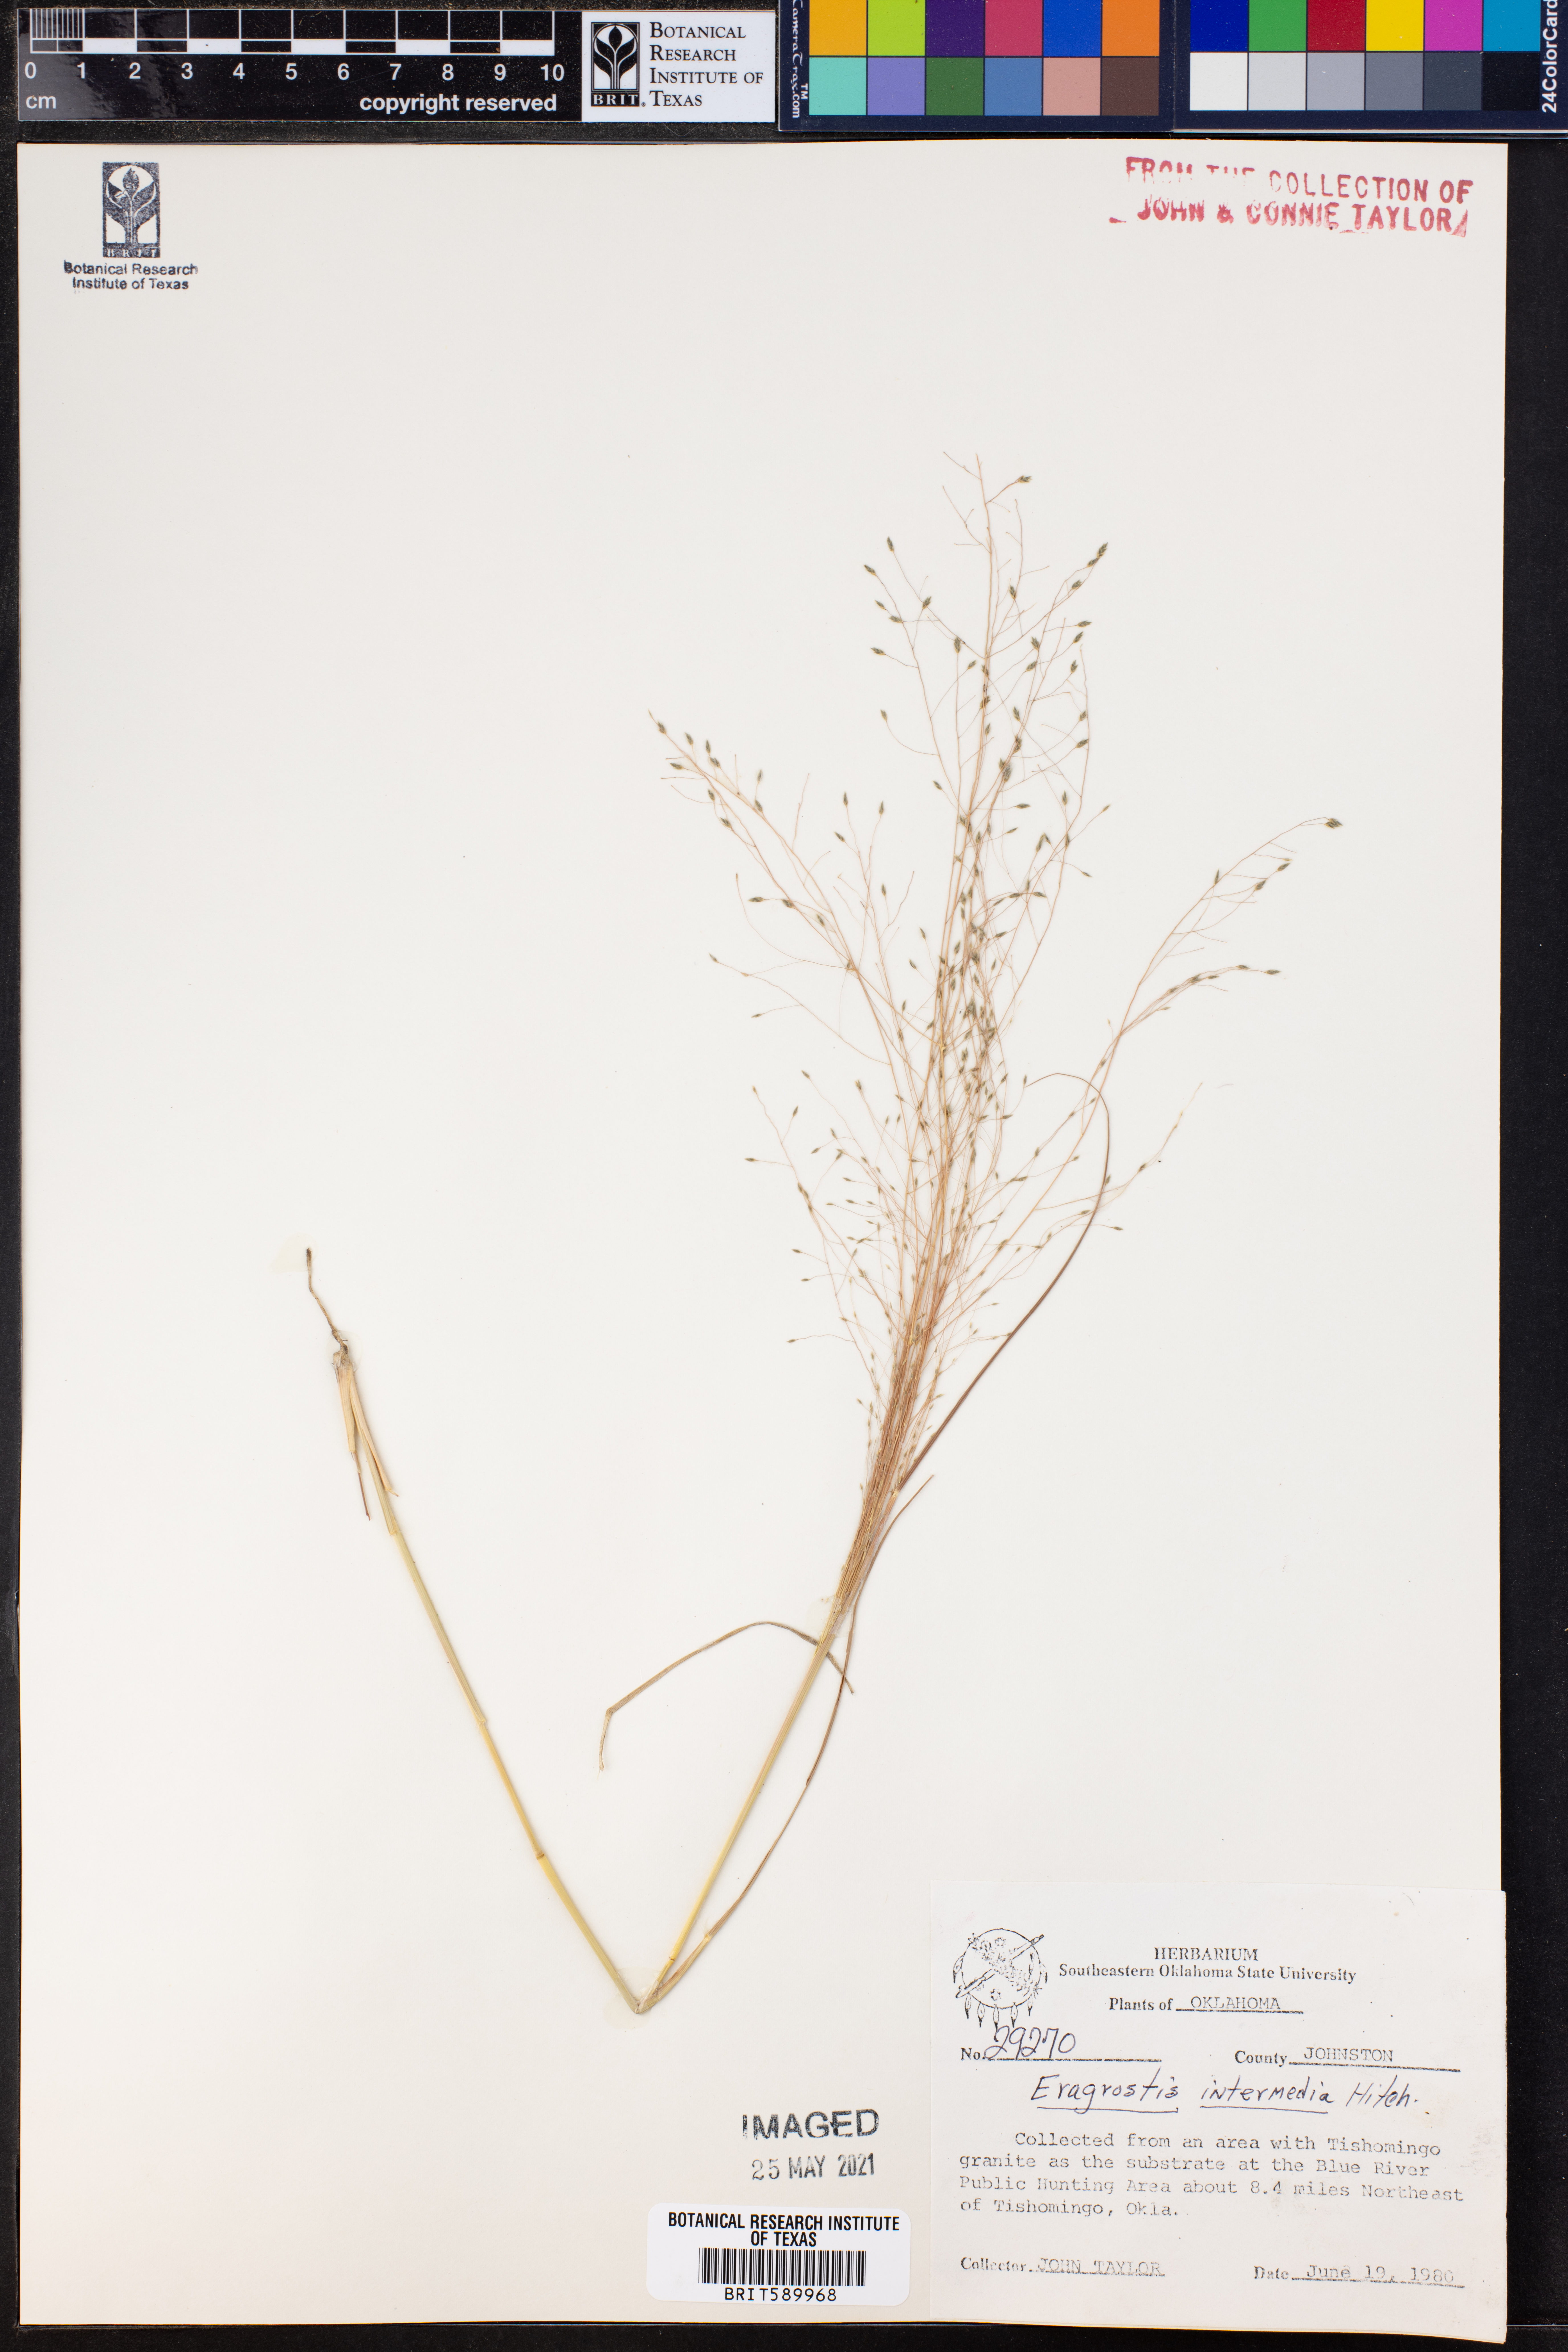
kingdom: Plantae
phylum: Tracheophyta
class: Liliopsida
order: Poales
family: Poaceae
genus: Eragrostis
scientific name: Eragrostis intermedia
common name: Plains love grass
